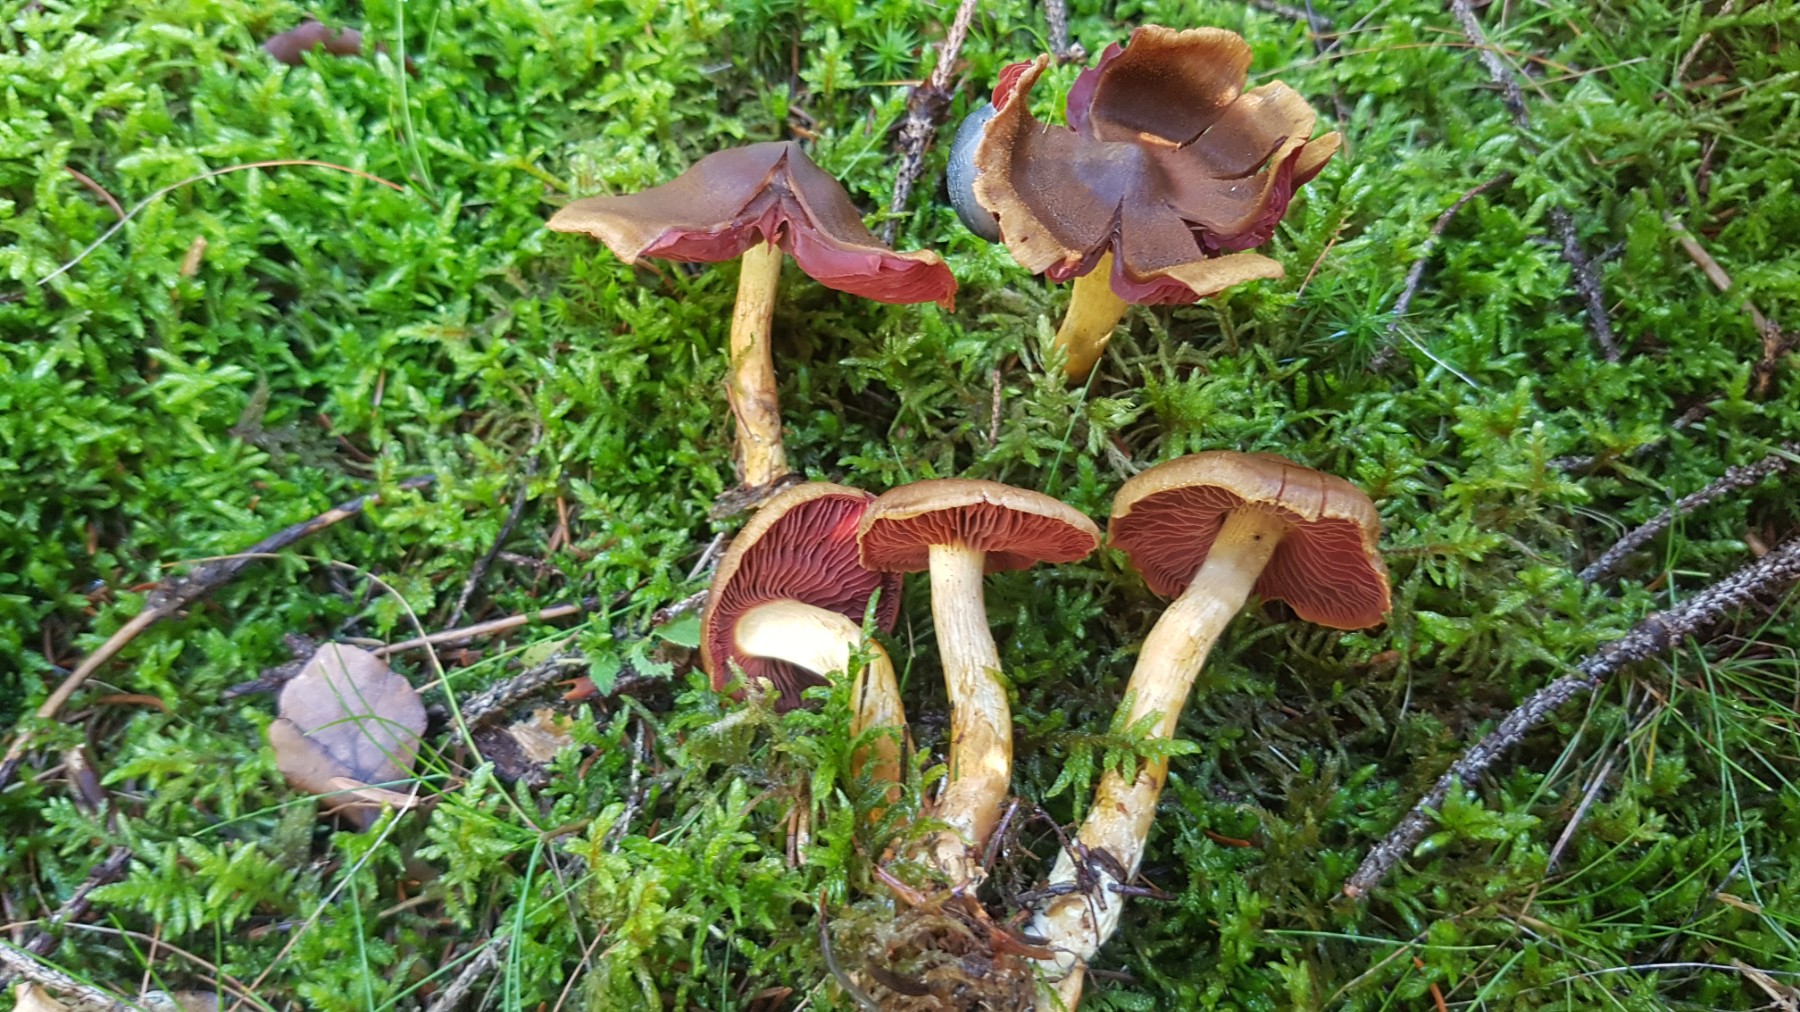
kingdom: Fungi
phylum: Basidiomycota
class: Agaricomycetes
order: Agaricales
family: Cortinariaceae
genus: Cortinarius
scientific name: Cortinarius
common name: cinnoberbladet slørhat
